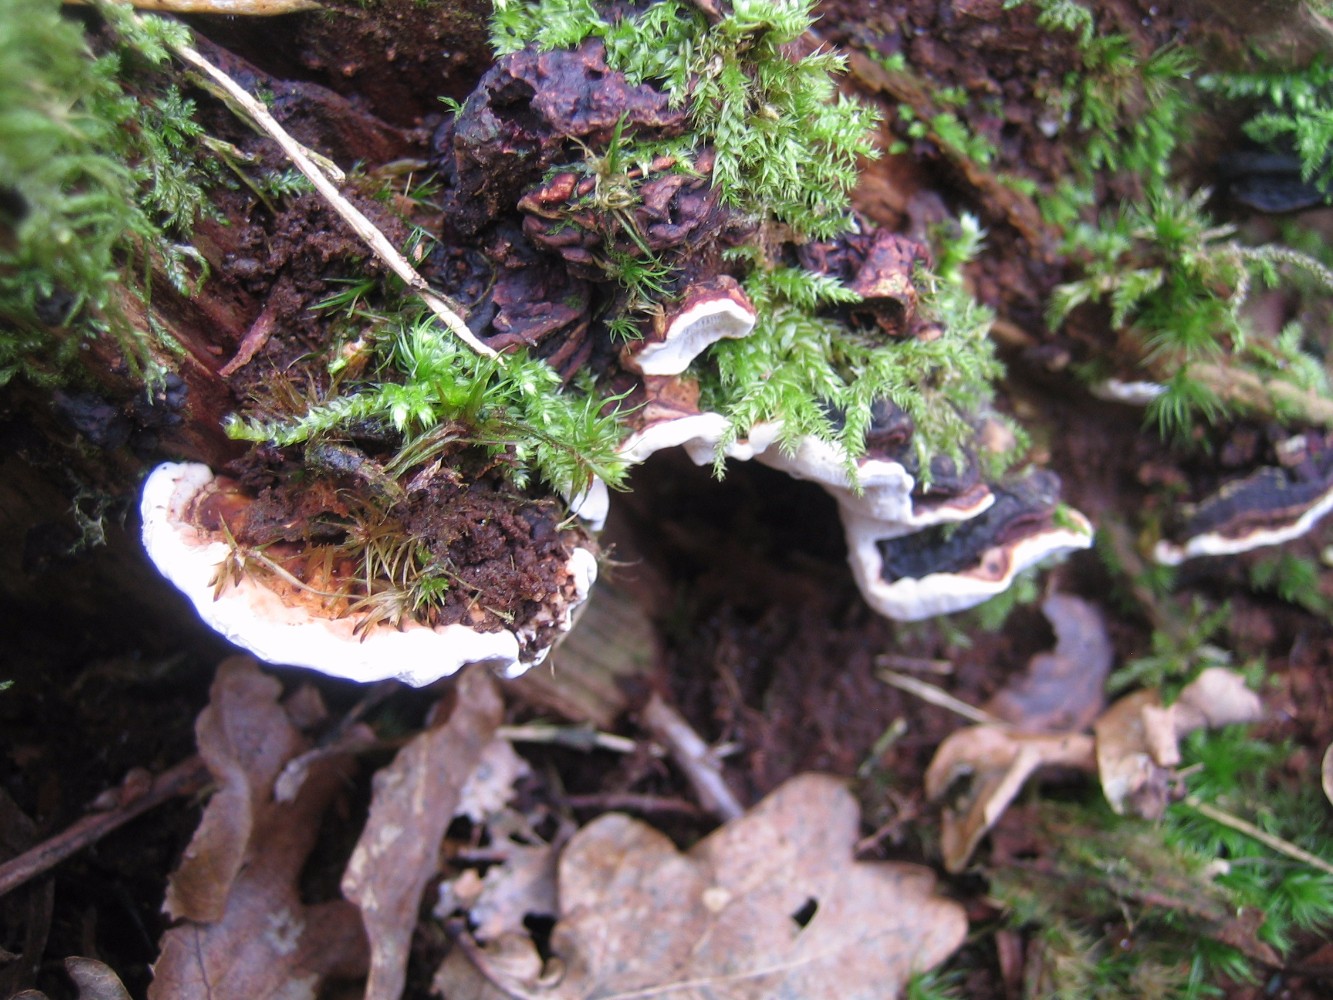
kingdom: Fungi
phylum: Basidiomycota
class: Agaricomycetes
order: Russulales
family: Bondarzewiaceae
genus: Heterobasidion
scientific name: Heterobasidion
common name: rodfordærver
